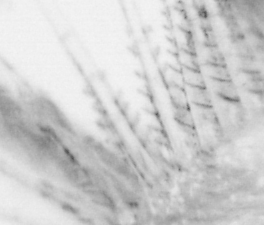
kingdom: Animalia
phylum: Chordata
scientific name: Chordata
